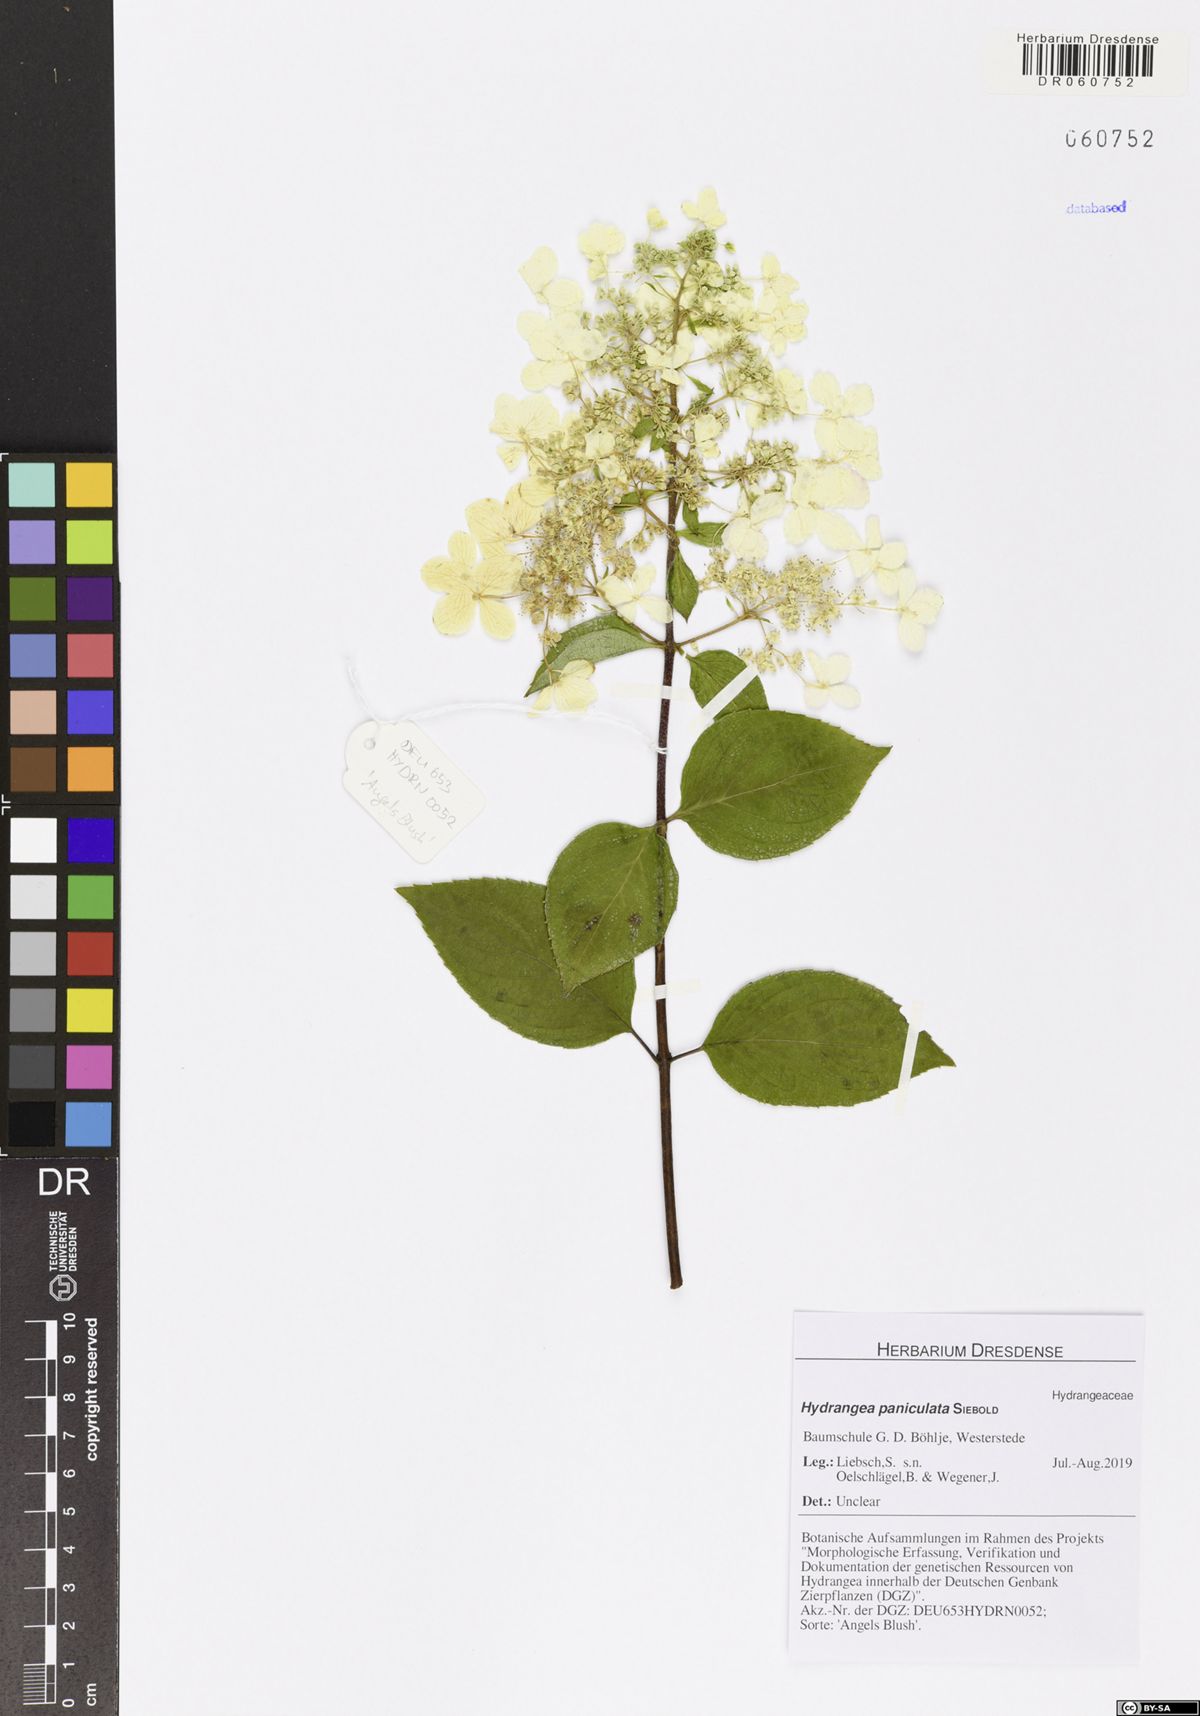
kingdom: Plantae
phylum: Tracheophyta
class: Magnoliopsida
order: Cornales
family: Hydrangeaceae
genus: Hydrangea
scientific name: Hydrangea paniculata
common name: Panicled hydrangea
